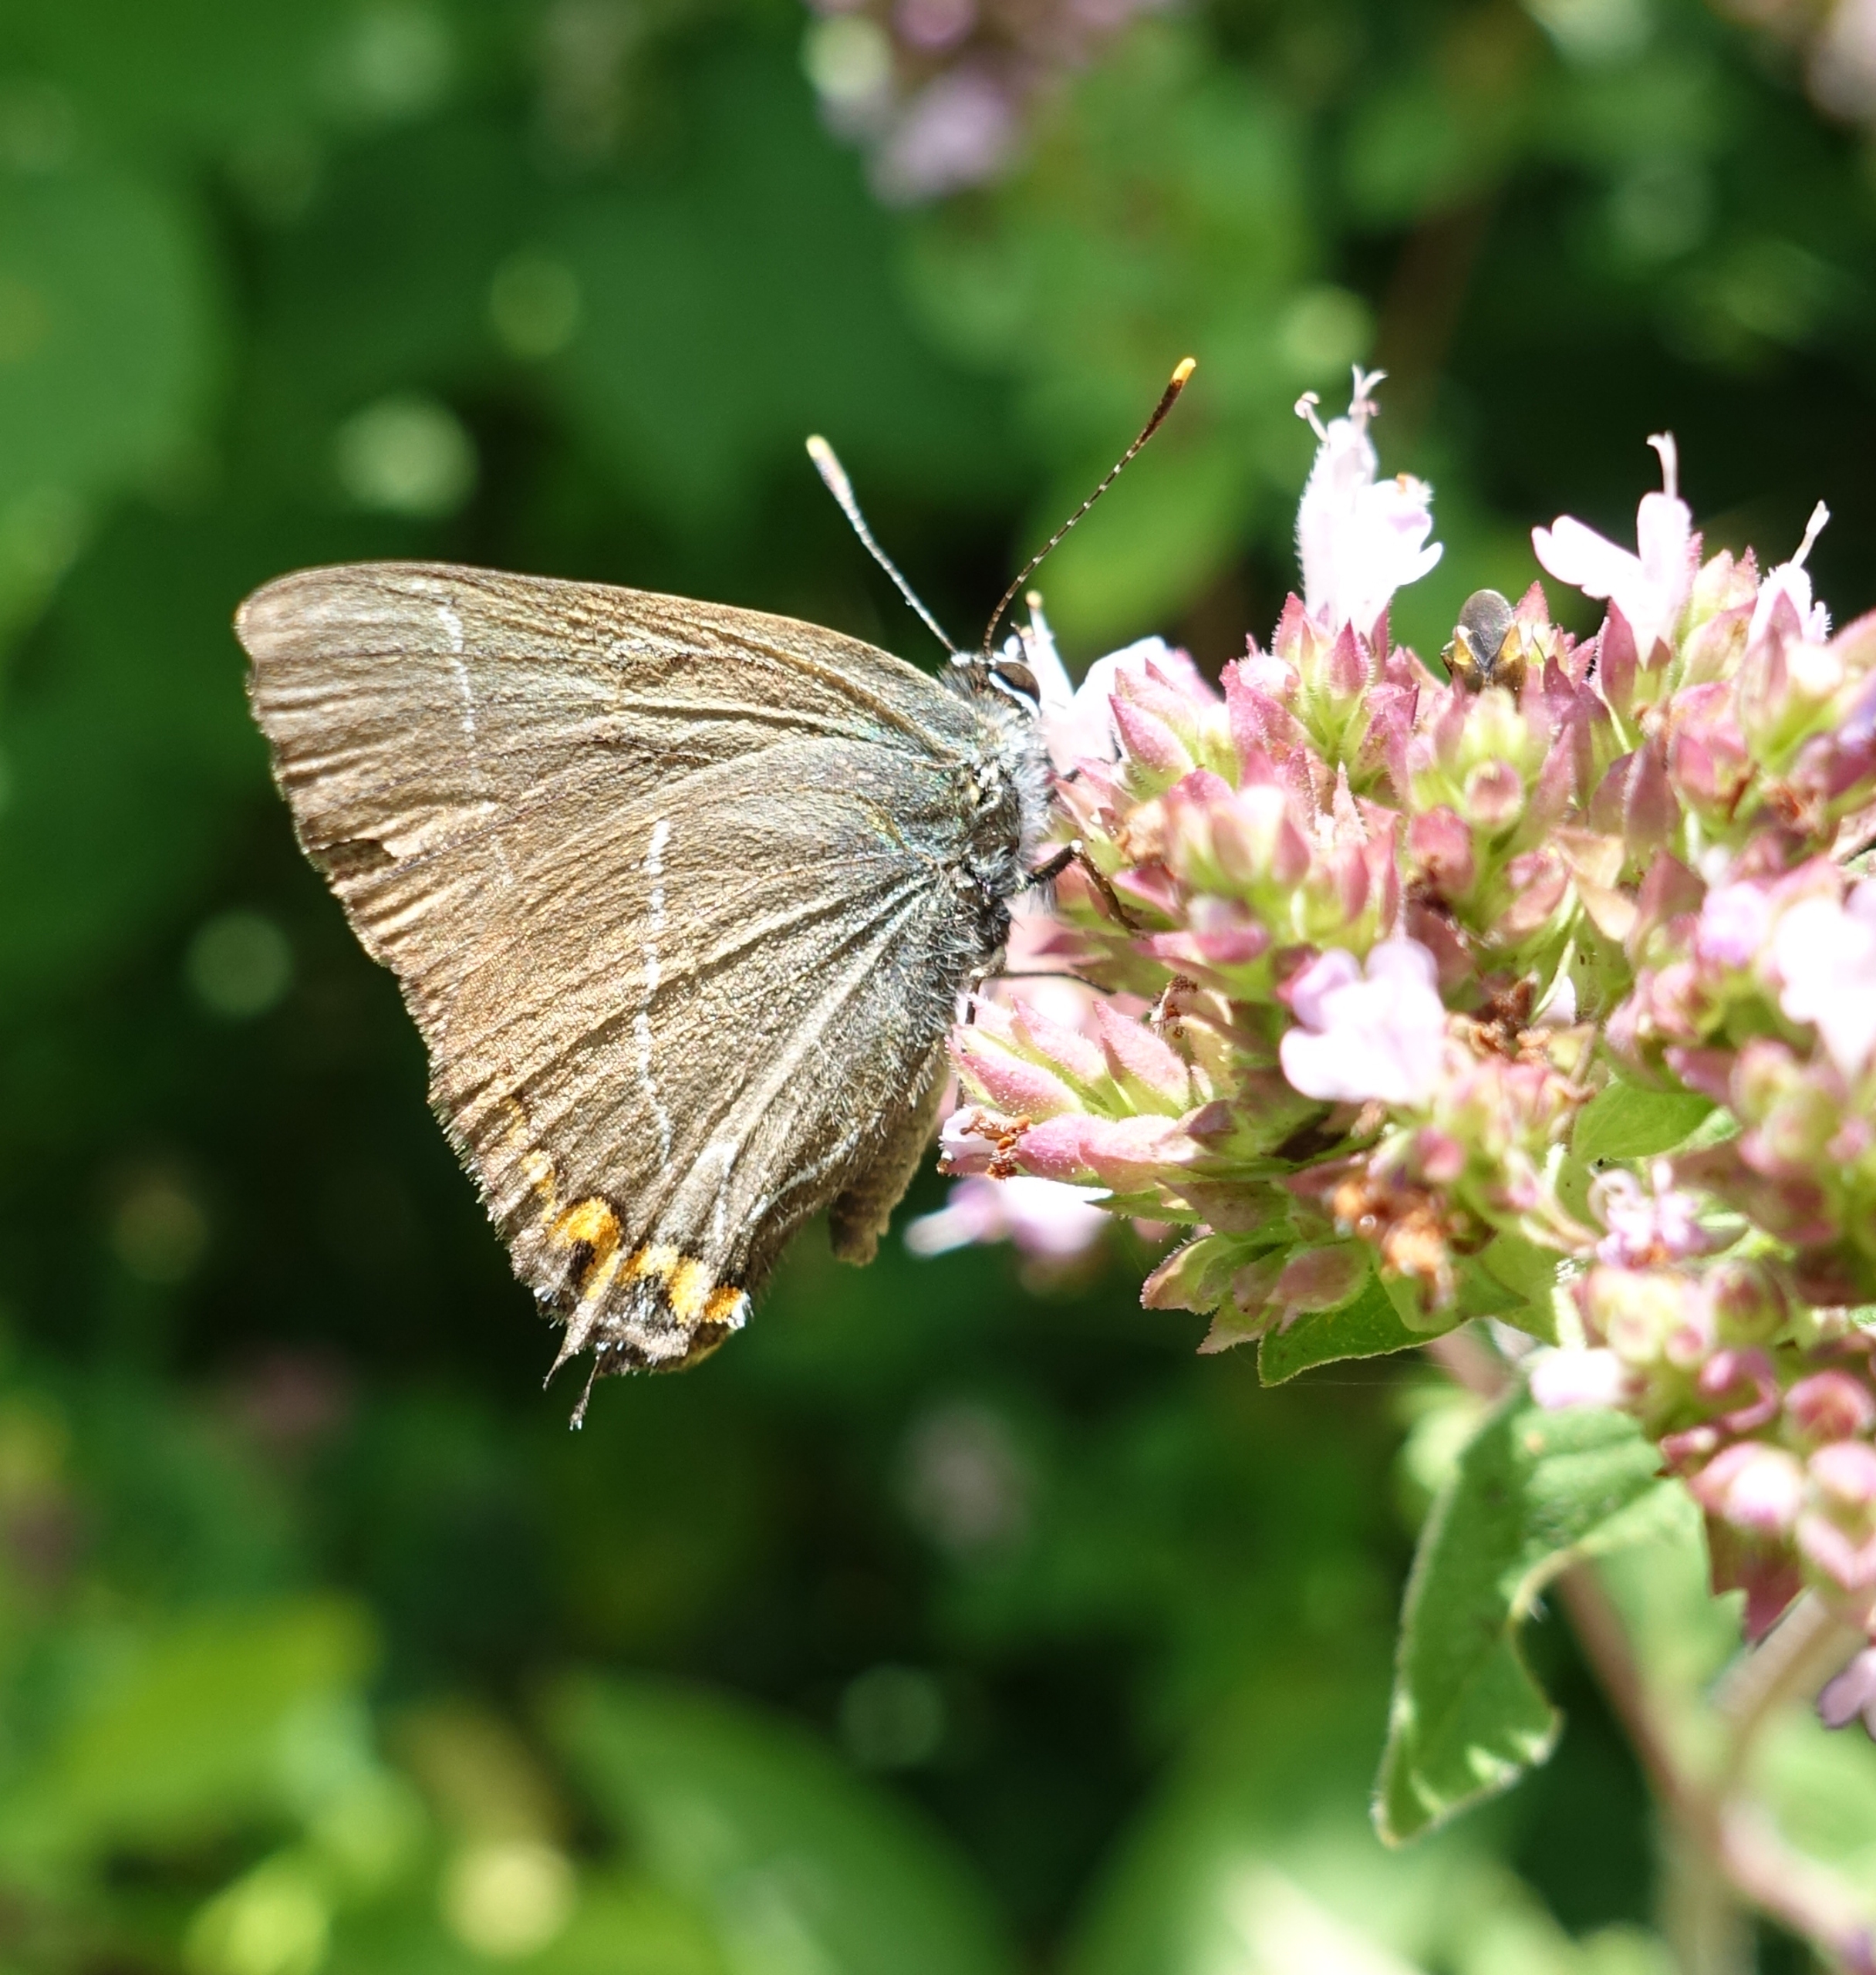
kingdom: Animalia
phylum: Arthropoda
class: Insecta
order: Lepidoptera
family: Lycaenidae
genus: Satyrium
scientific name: Satyrium w-album
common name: Det hvide W
